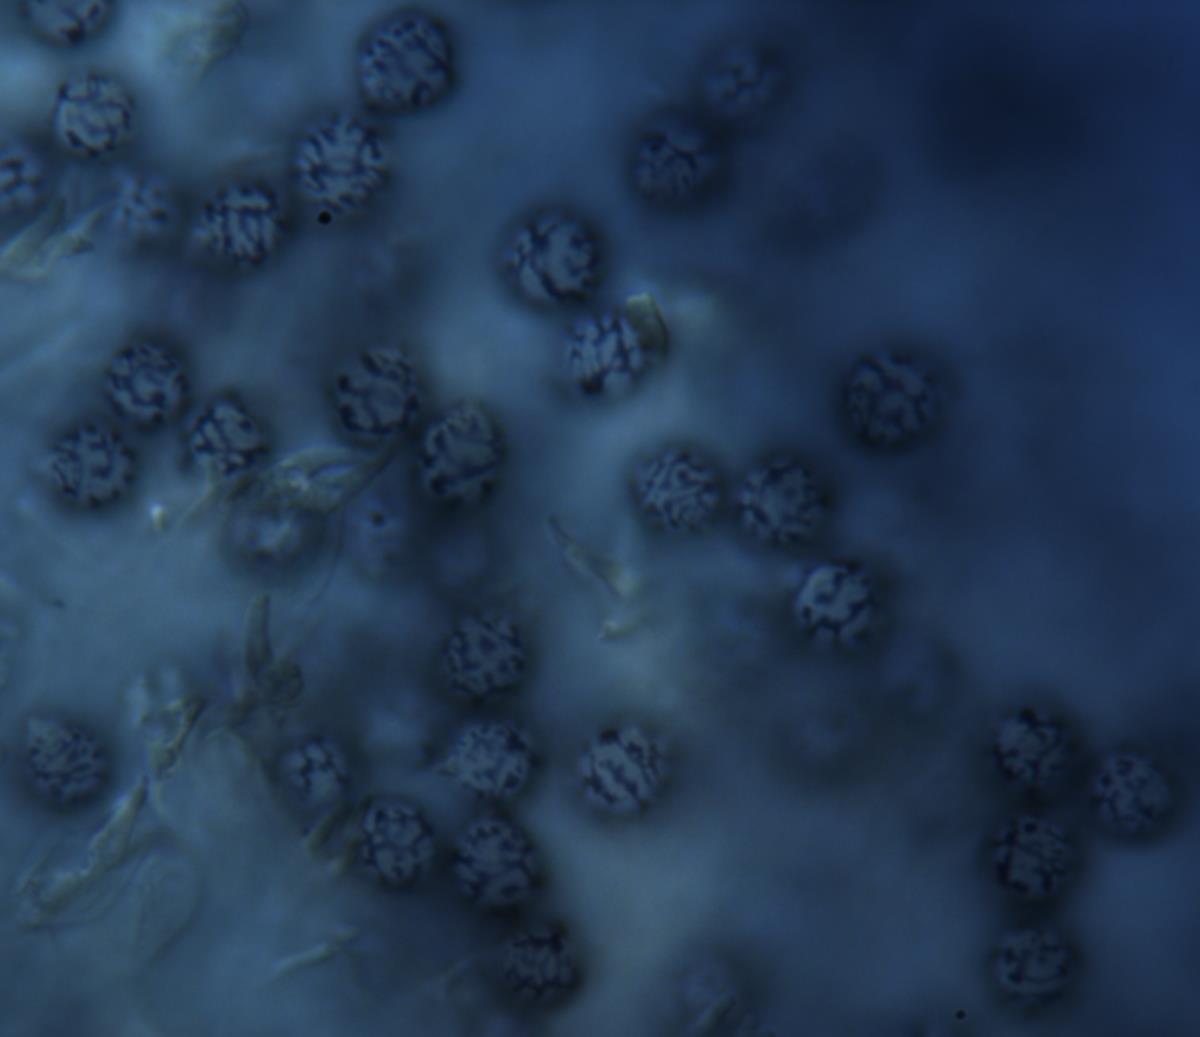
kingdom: Fungi
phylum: Basidiomycota
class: Agaricomycetes
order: Russulales
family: Russulaceae
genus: Zelleromyces
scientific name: Zelleromyces
